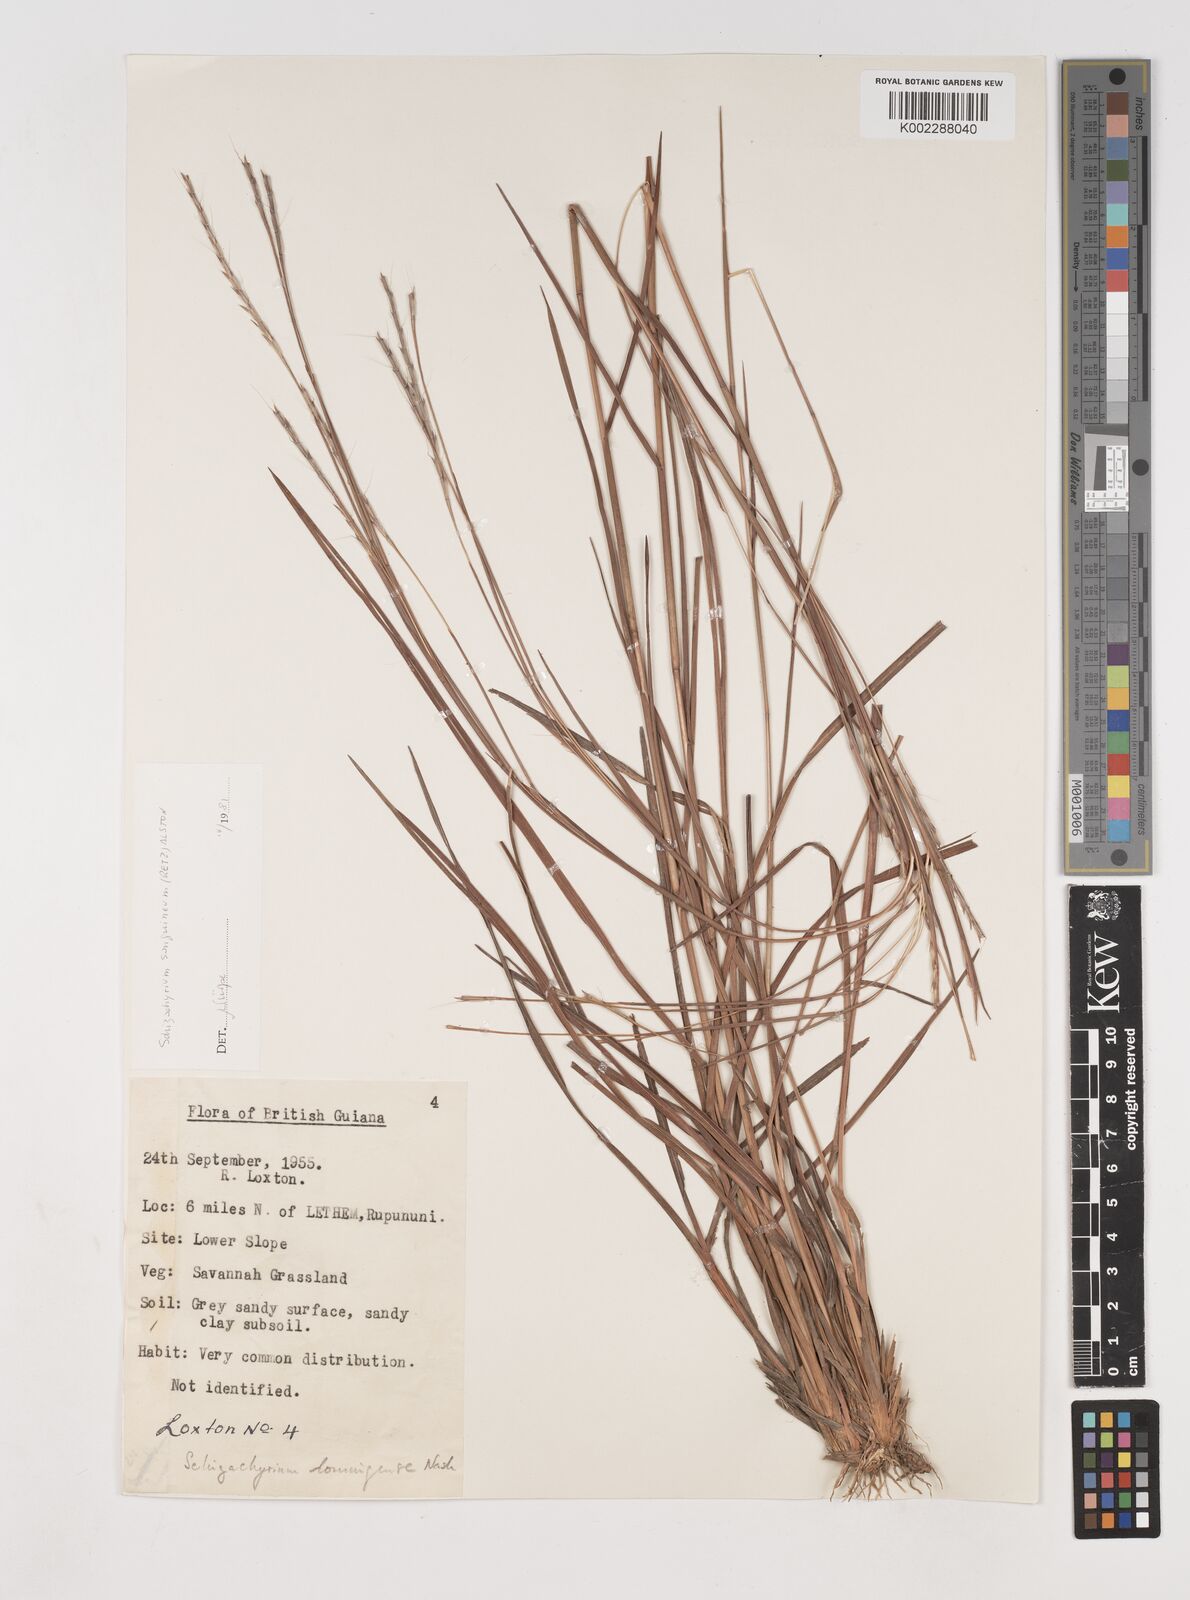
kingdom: Plantae
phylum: Tracheophyta
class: Liliopsida
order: Poales
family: Poaceae
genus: Schizachyrium
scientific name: Schizachyrium sanguineum
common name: Crimson bluestem
